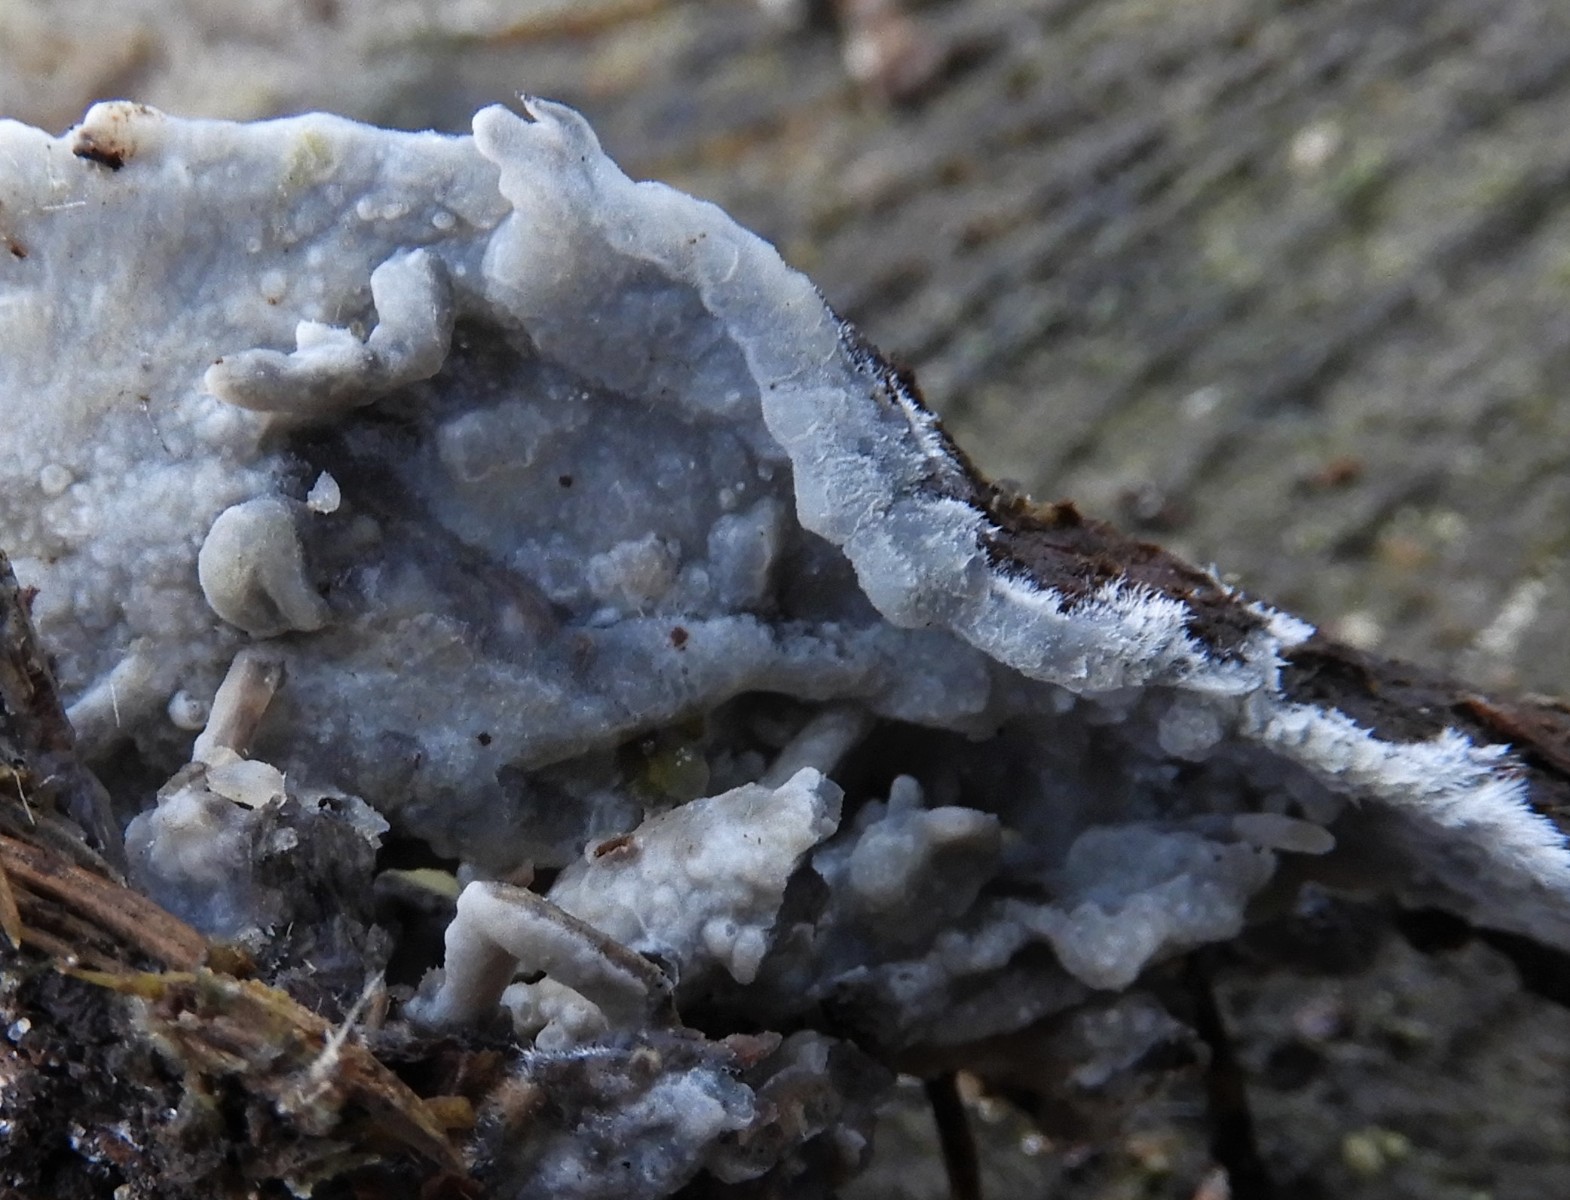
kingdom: Fungi
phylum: Basidiomycota
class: Agaricomycetes
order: Corticiales
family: Corticiaceae
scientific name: Corticiaceae
